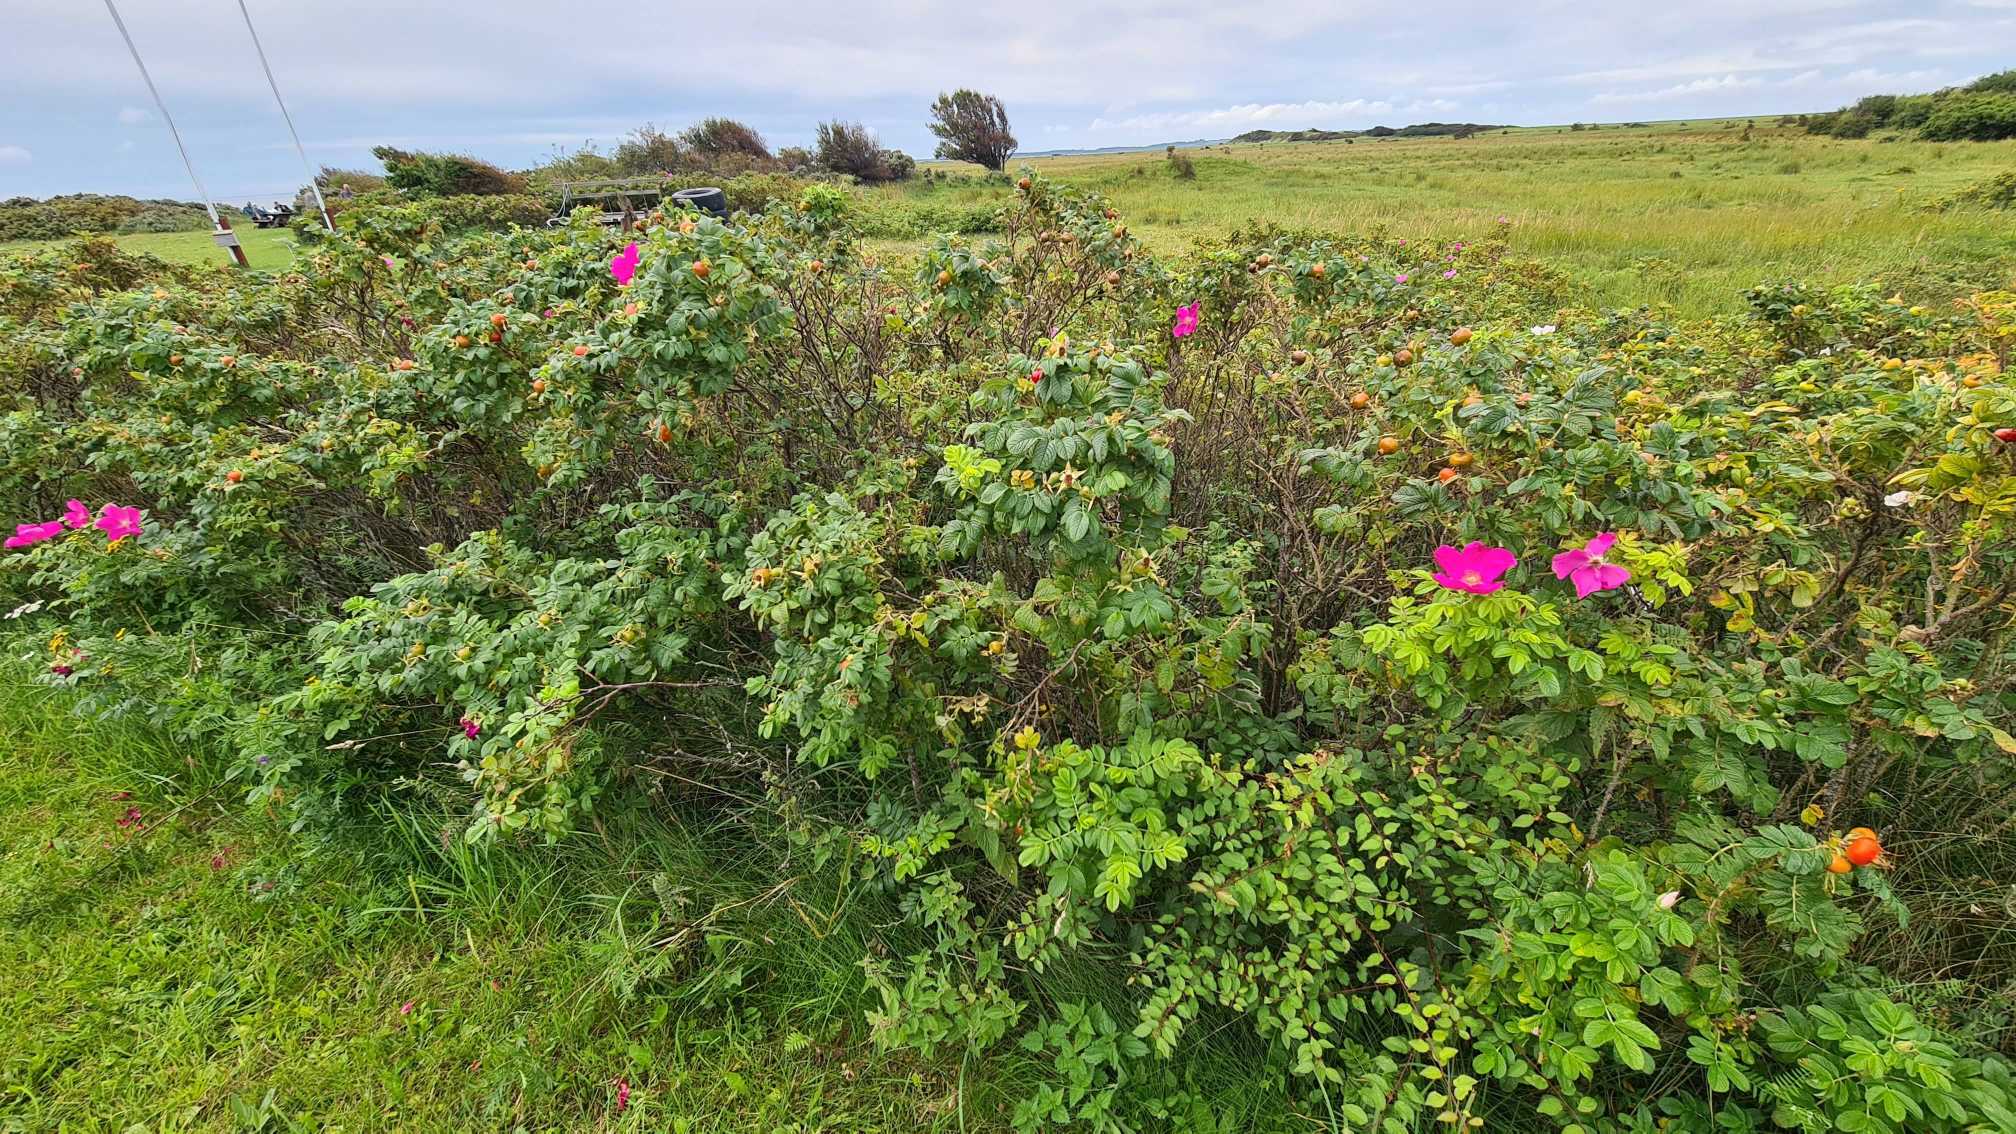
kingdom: Plantae
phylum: Tracheophyta
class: Magnoliopsida
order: Rosales
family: Rosaceae
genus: Rosa
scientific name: Rosa rugosa
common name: Rynket rose
